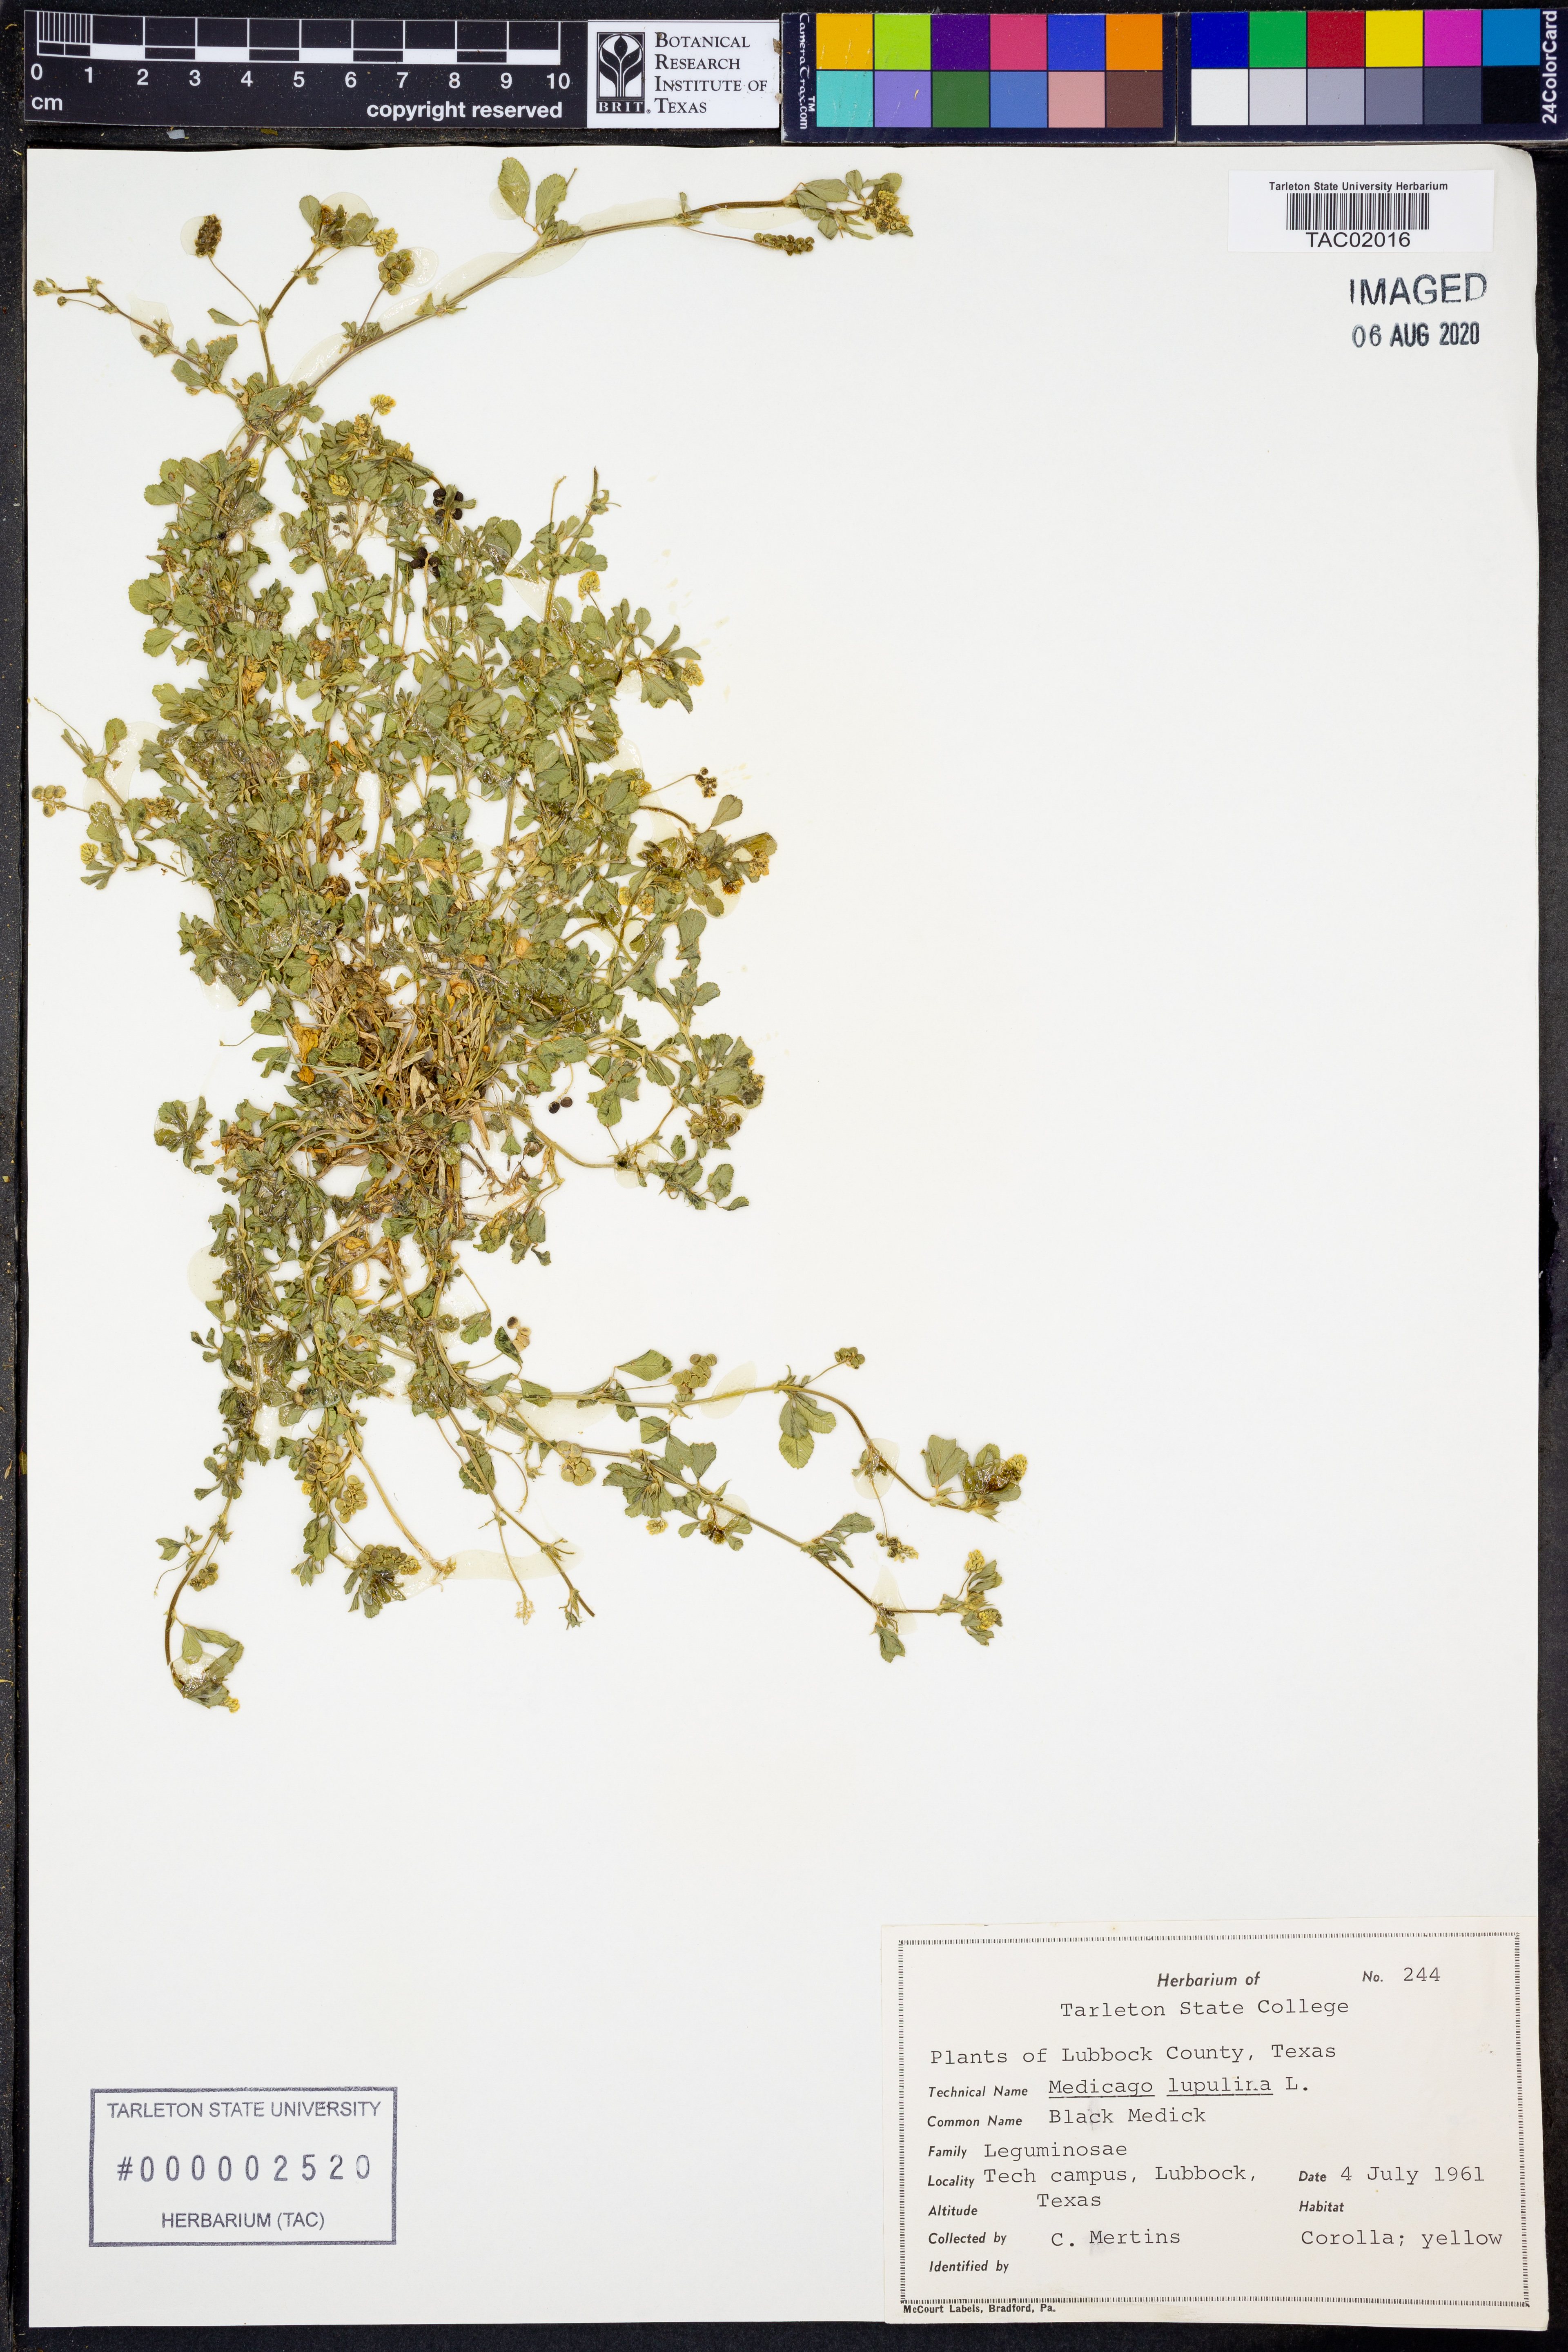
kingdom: Plantae
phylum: Tracheophyta
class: Magnoliopsida
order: Fabales
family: Fabaceae
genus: Medicago
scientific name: Medicago lupulina
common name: Black medick
